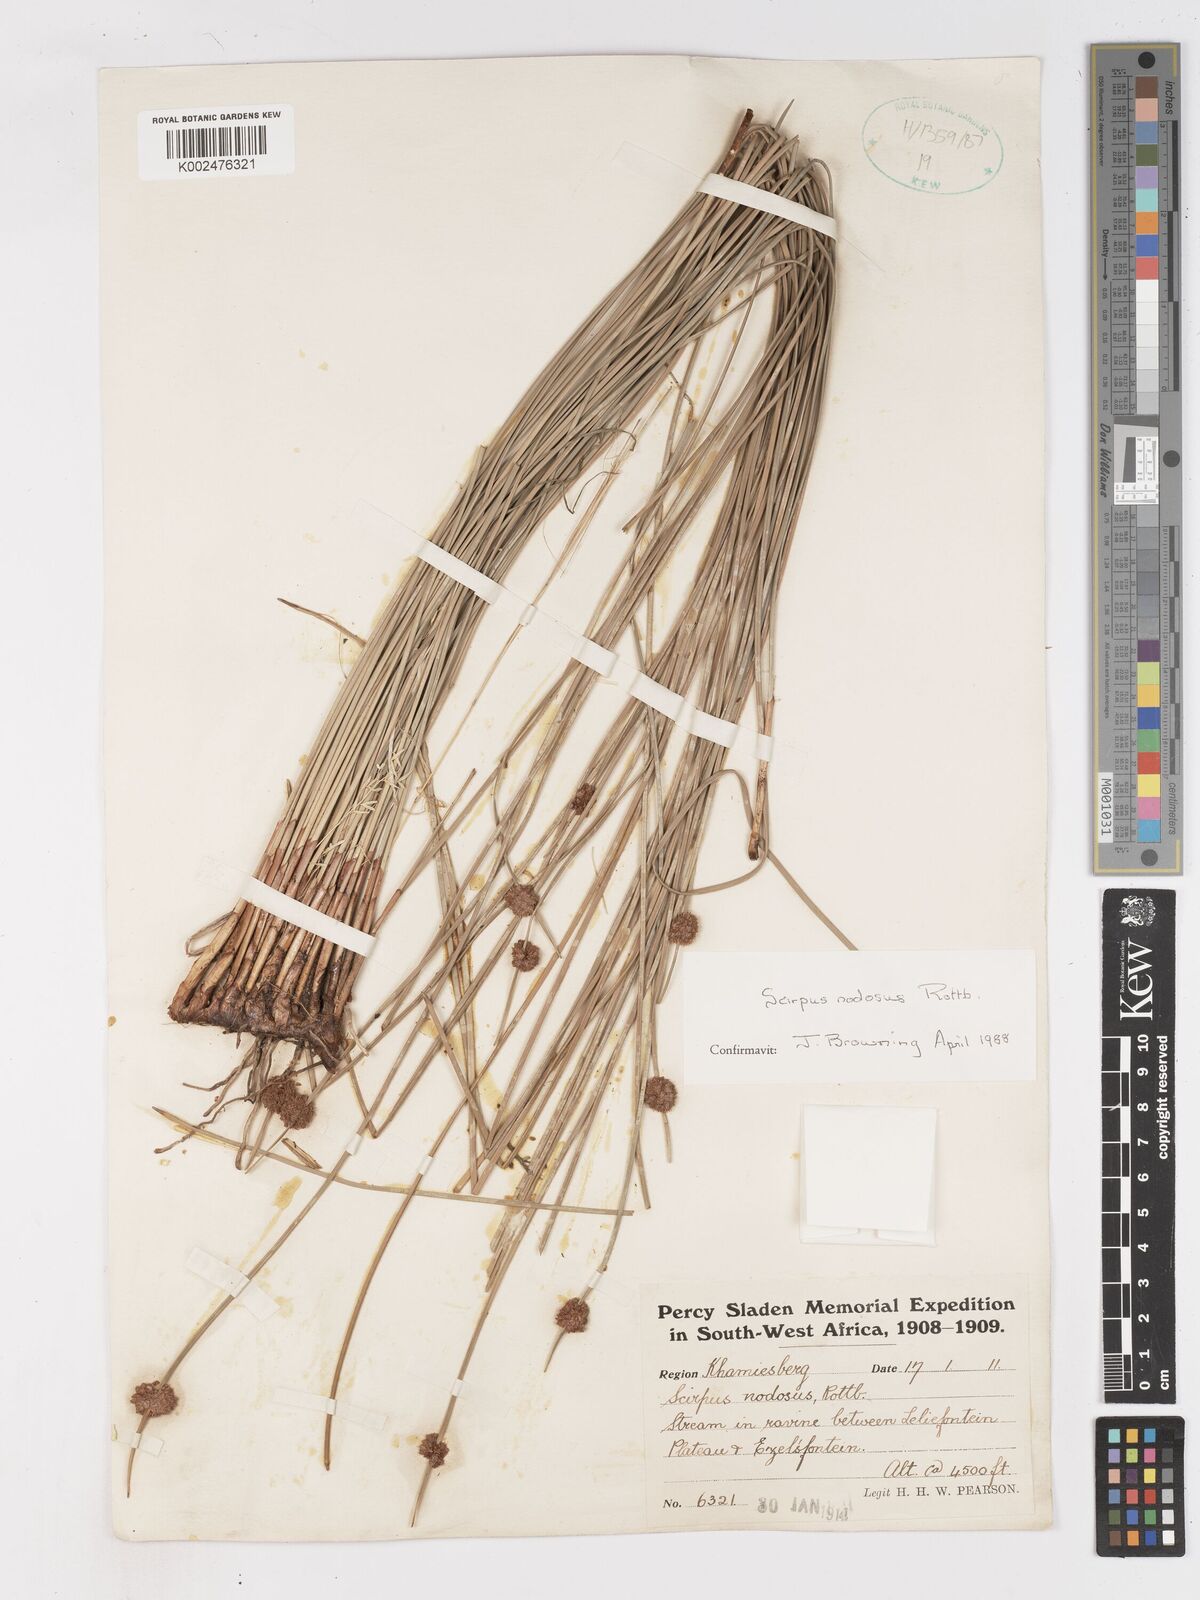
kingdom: Plantae
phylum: Tracheophyta
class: Liliopsida
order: Poales
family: Cyperaceae
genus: Ficinia
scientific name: Ficinia nodosa
